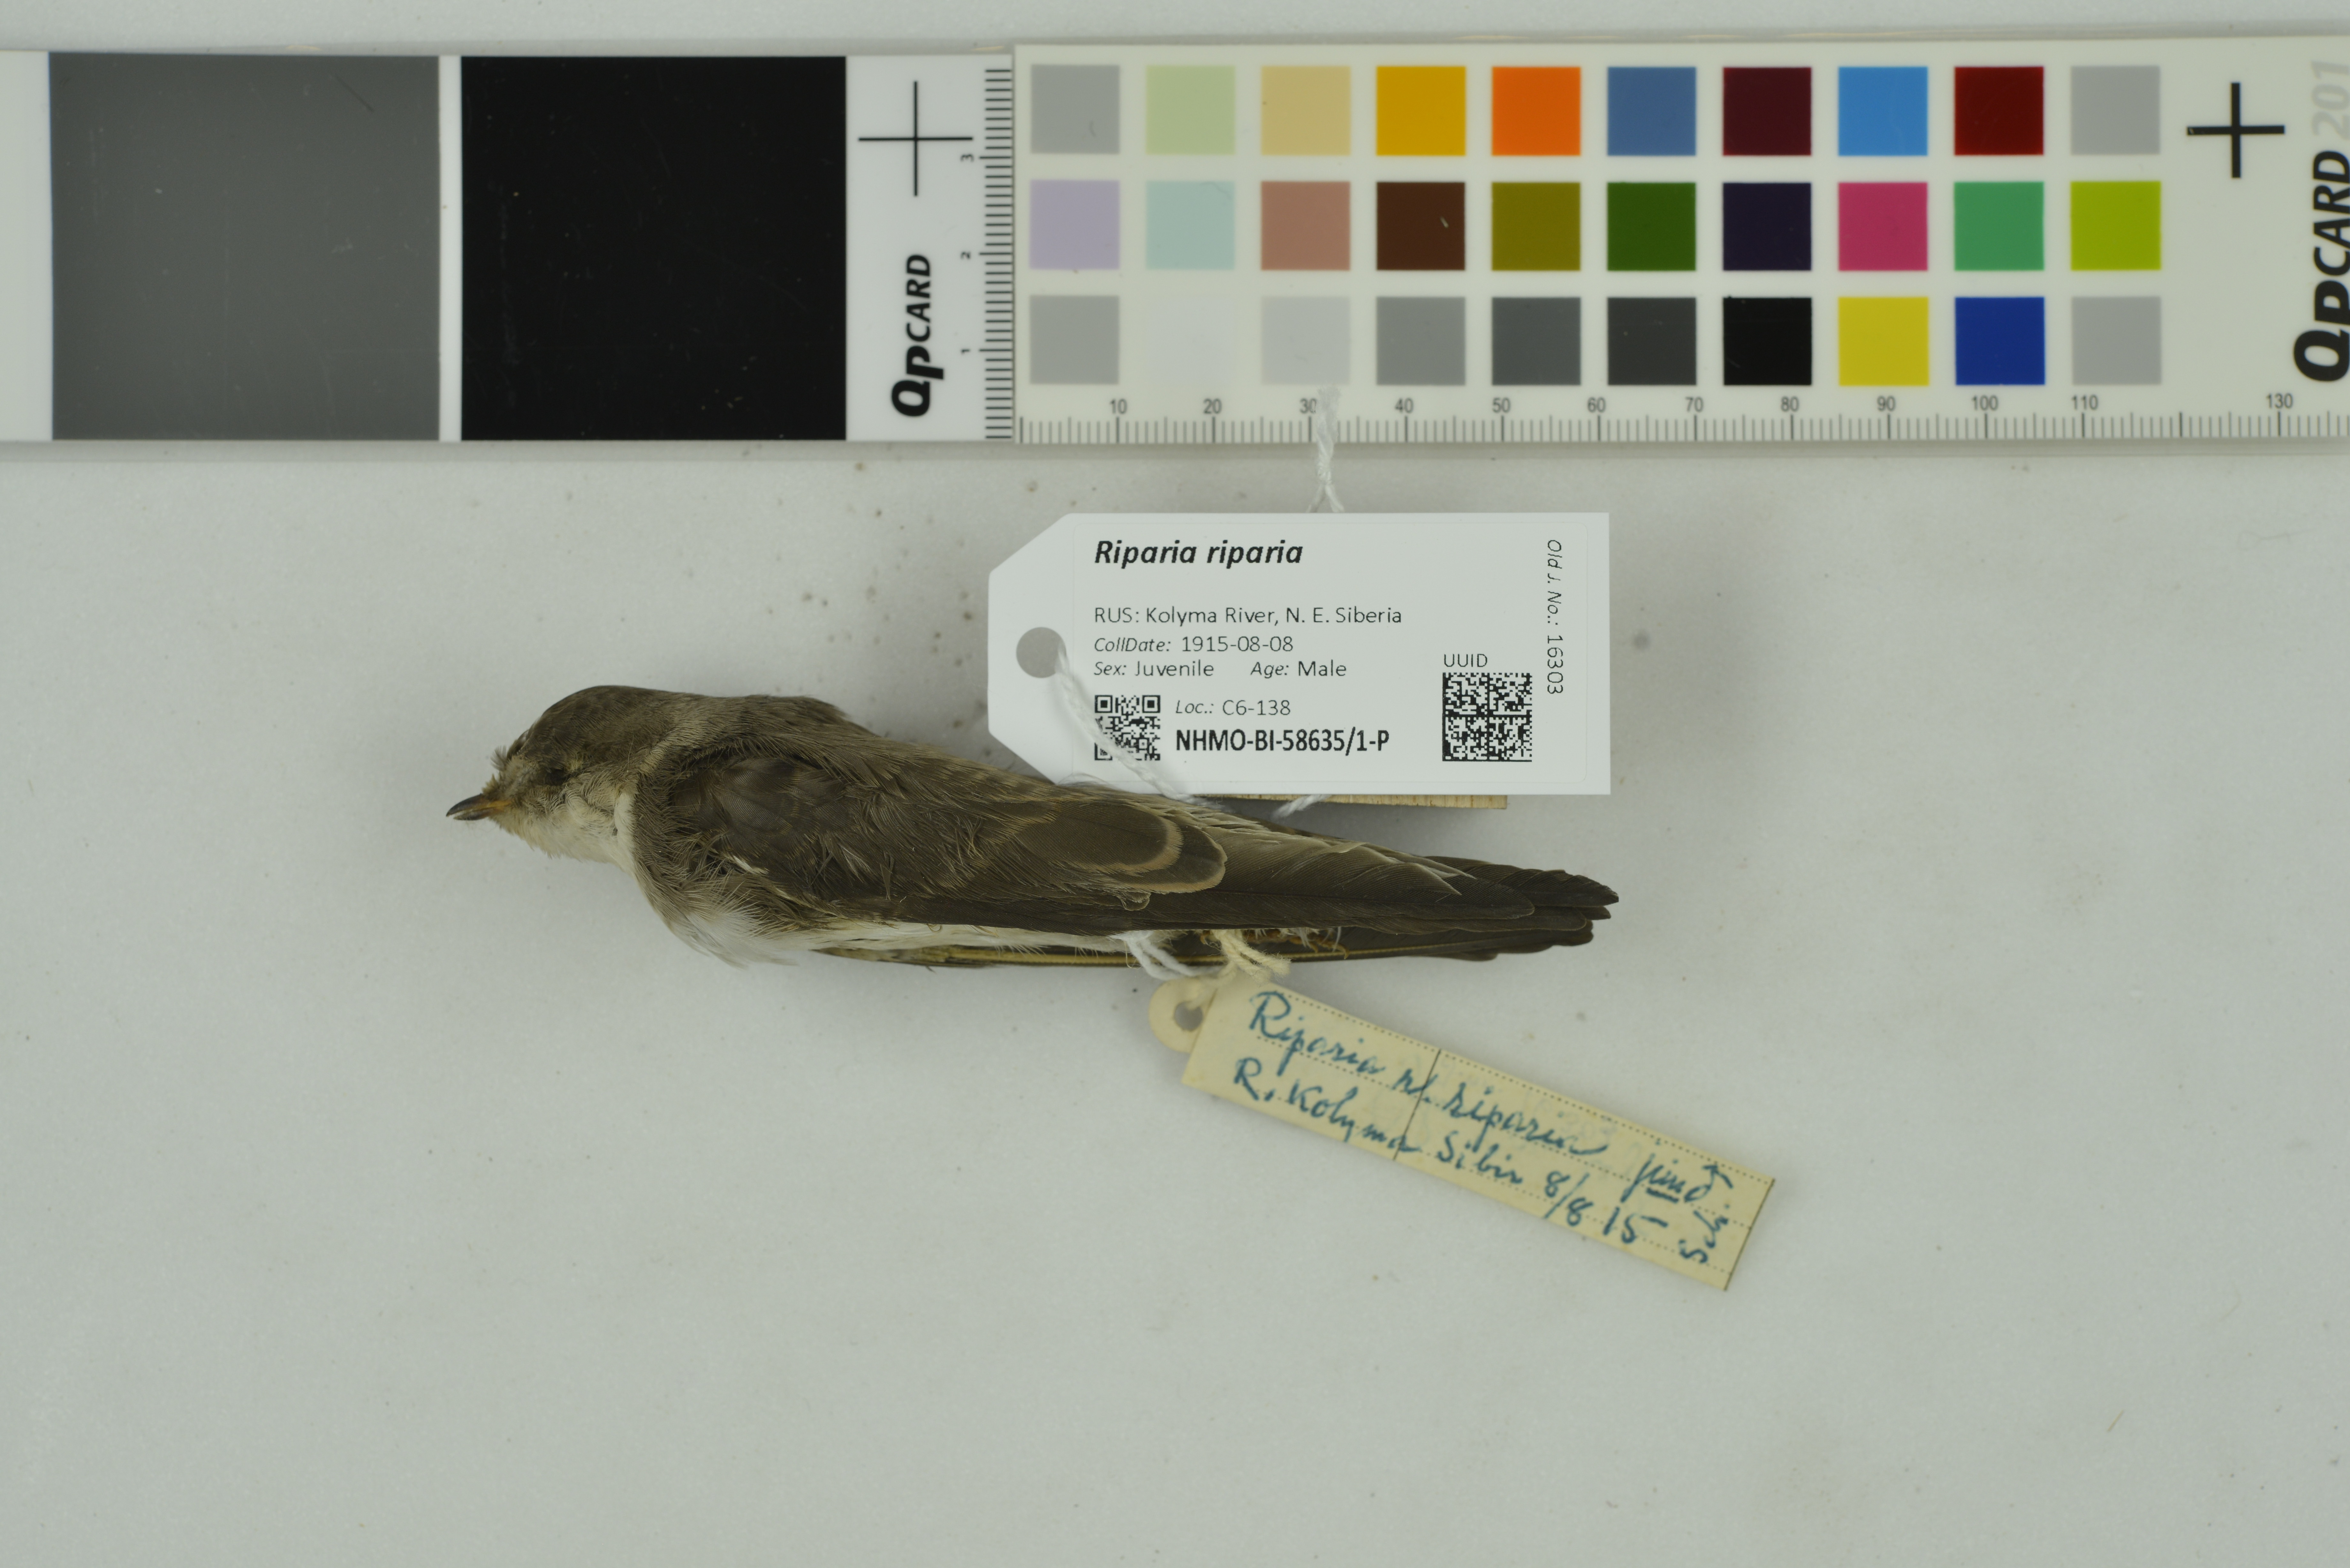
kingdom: Animalia
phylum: Chordata
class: Aves
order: Passeriformes
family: Hirundinidae
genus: Riparia
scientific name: Riparia riparia
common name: Sand martin
